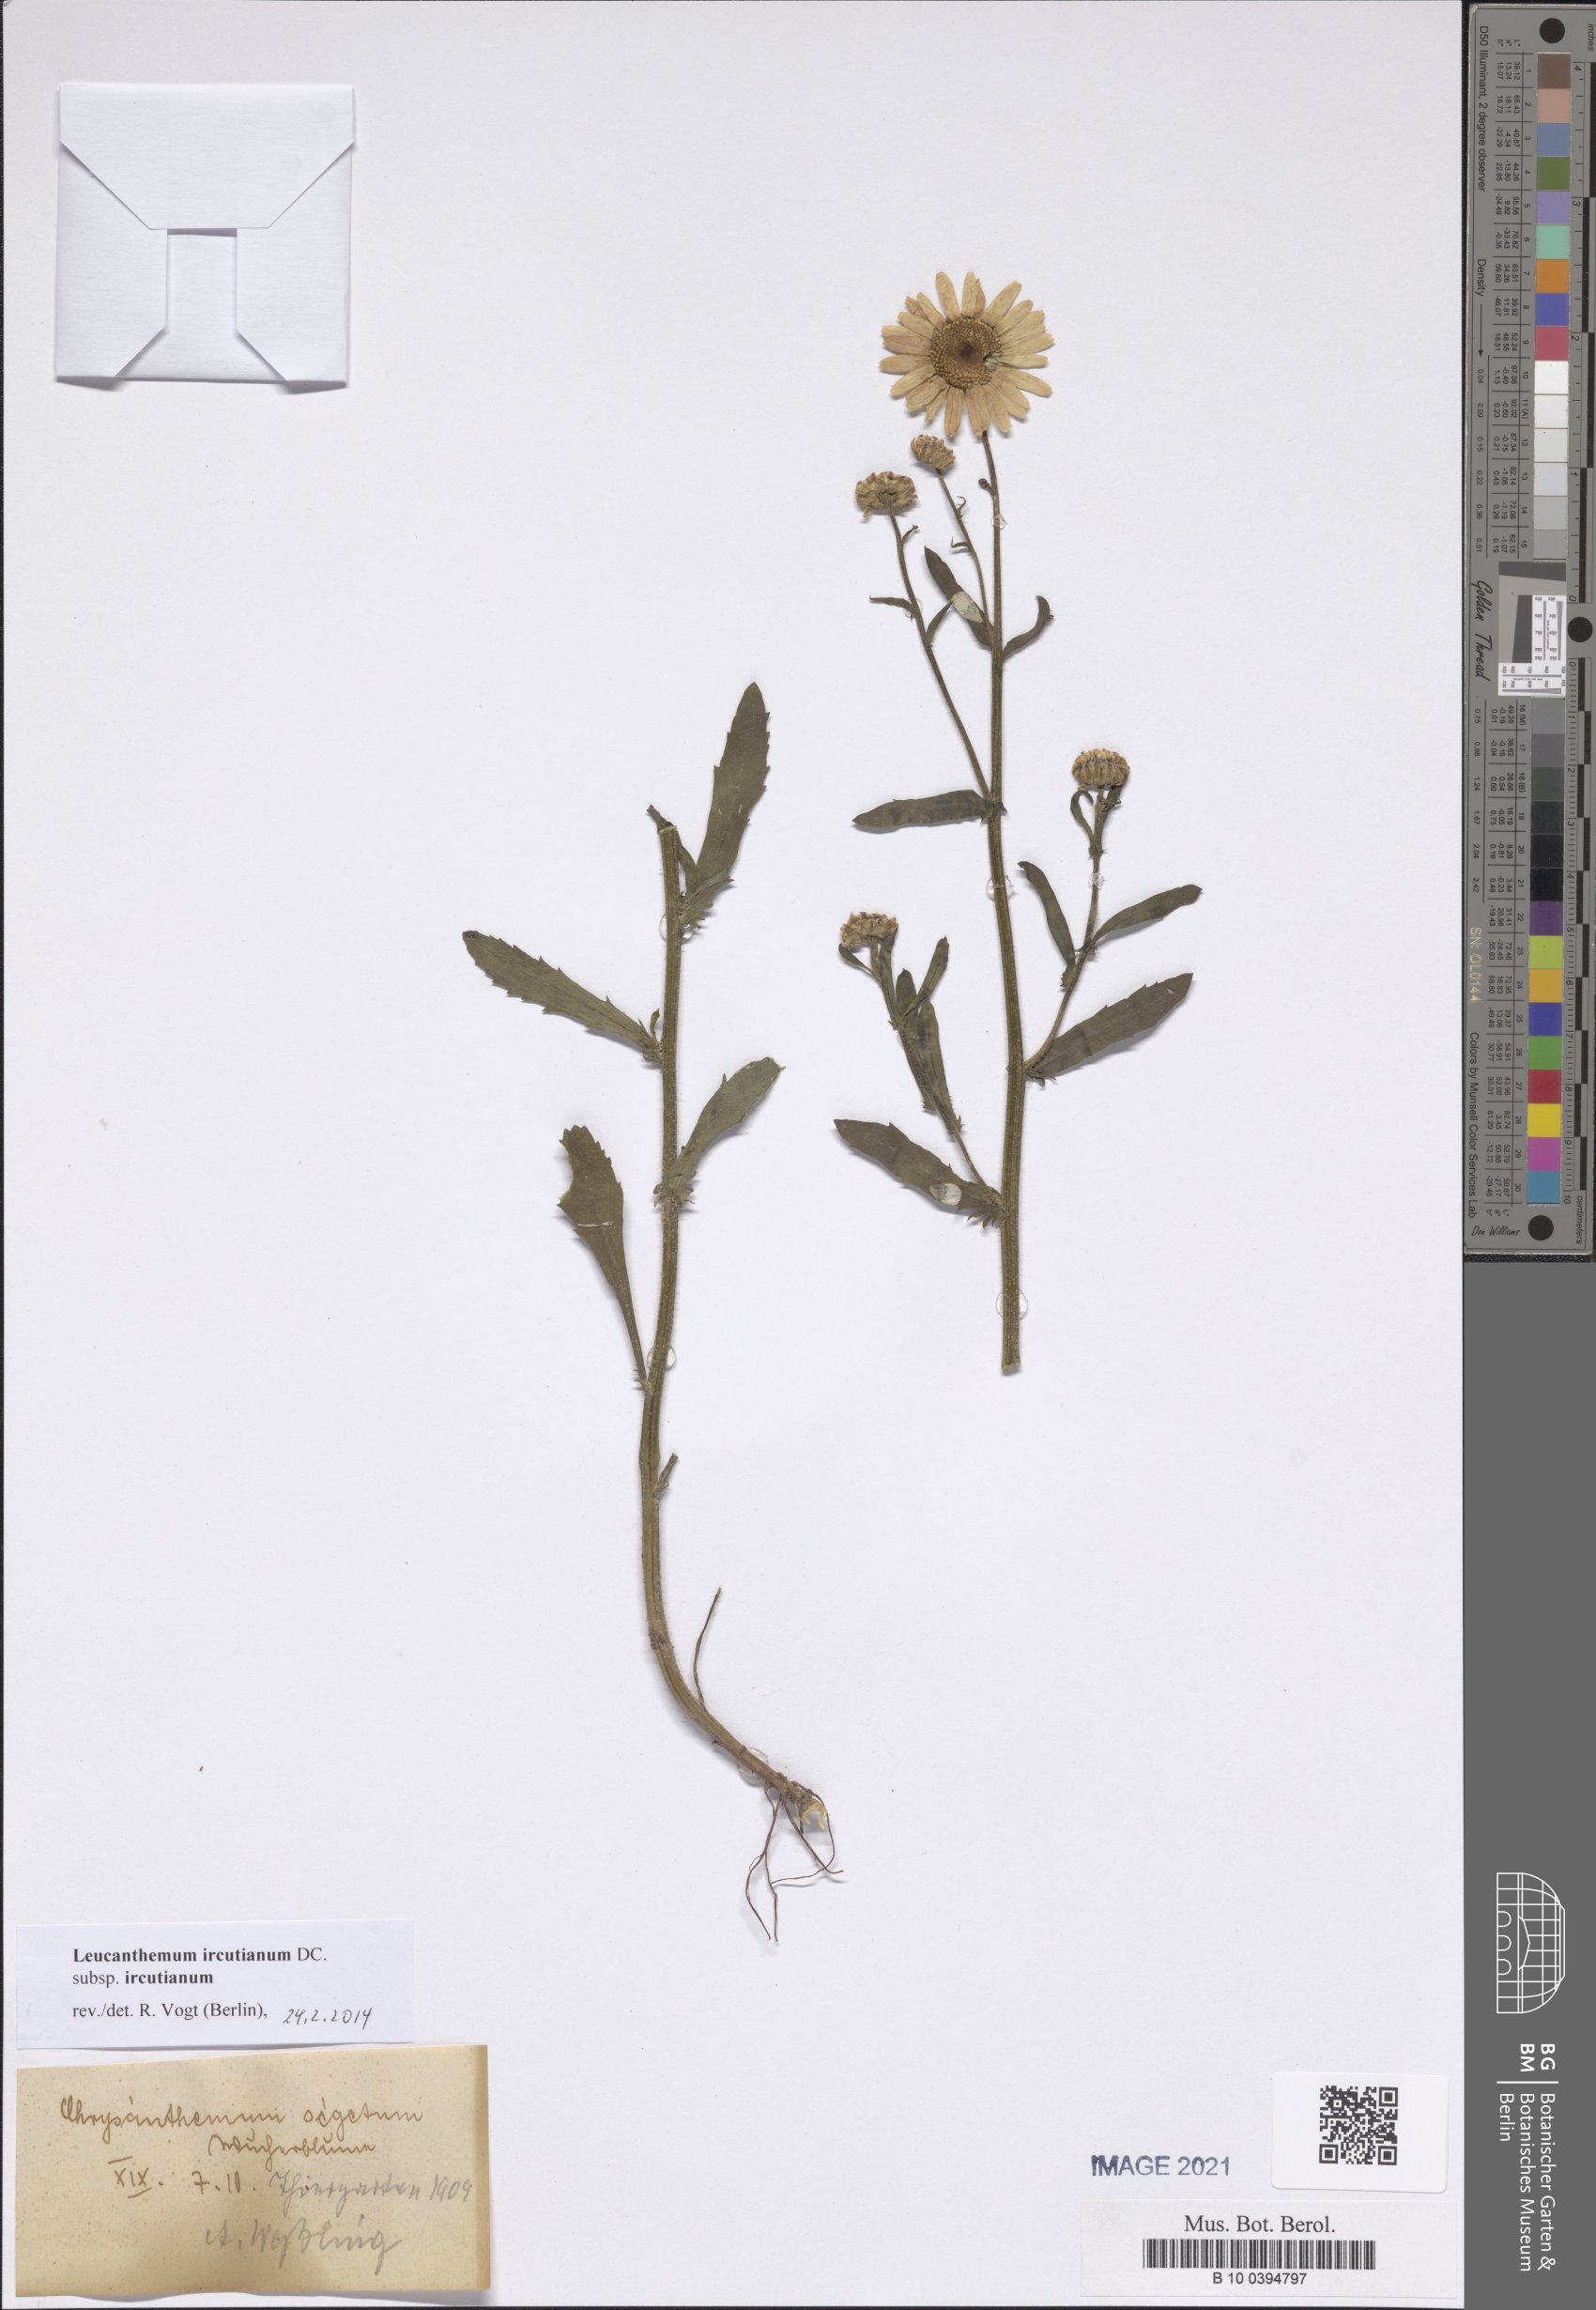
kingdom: Plantae
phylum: Tracheophyta
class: Magnoliopsida
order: Asterales
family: Asteraceae
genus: Leucanthemum
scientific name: Leucanthemum ircutianum
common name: Daisy
